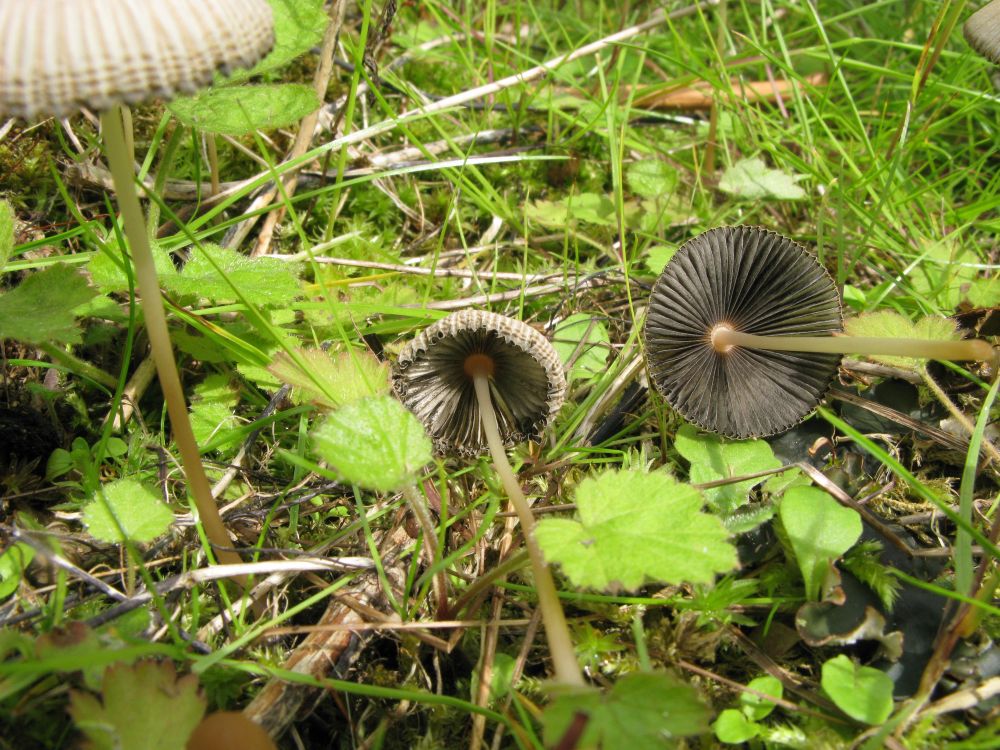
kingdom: Fungi
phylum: Basidiomycota
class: Agaricomycetes
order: Agaricales
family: Psathyrellaceae
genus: Parasola
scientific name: Parasola plicatilis
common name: plæne-hjulhat
